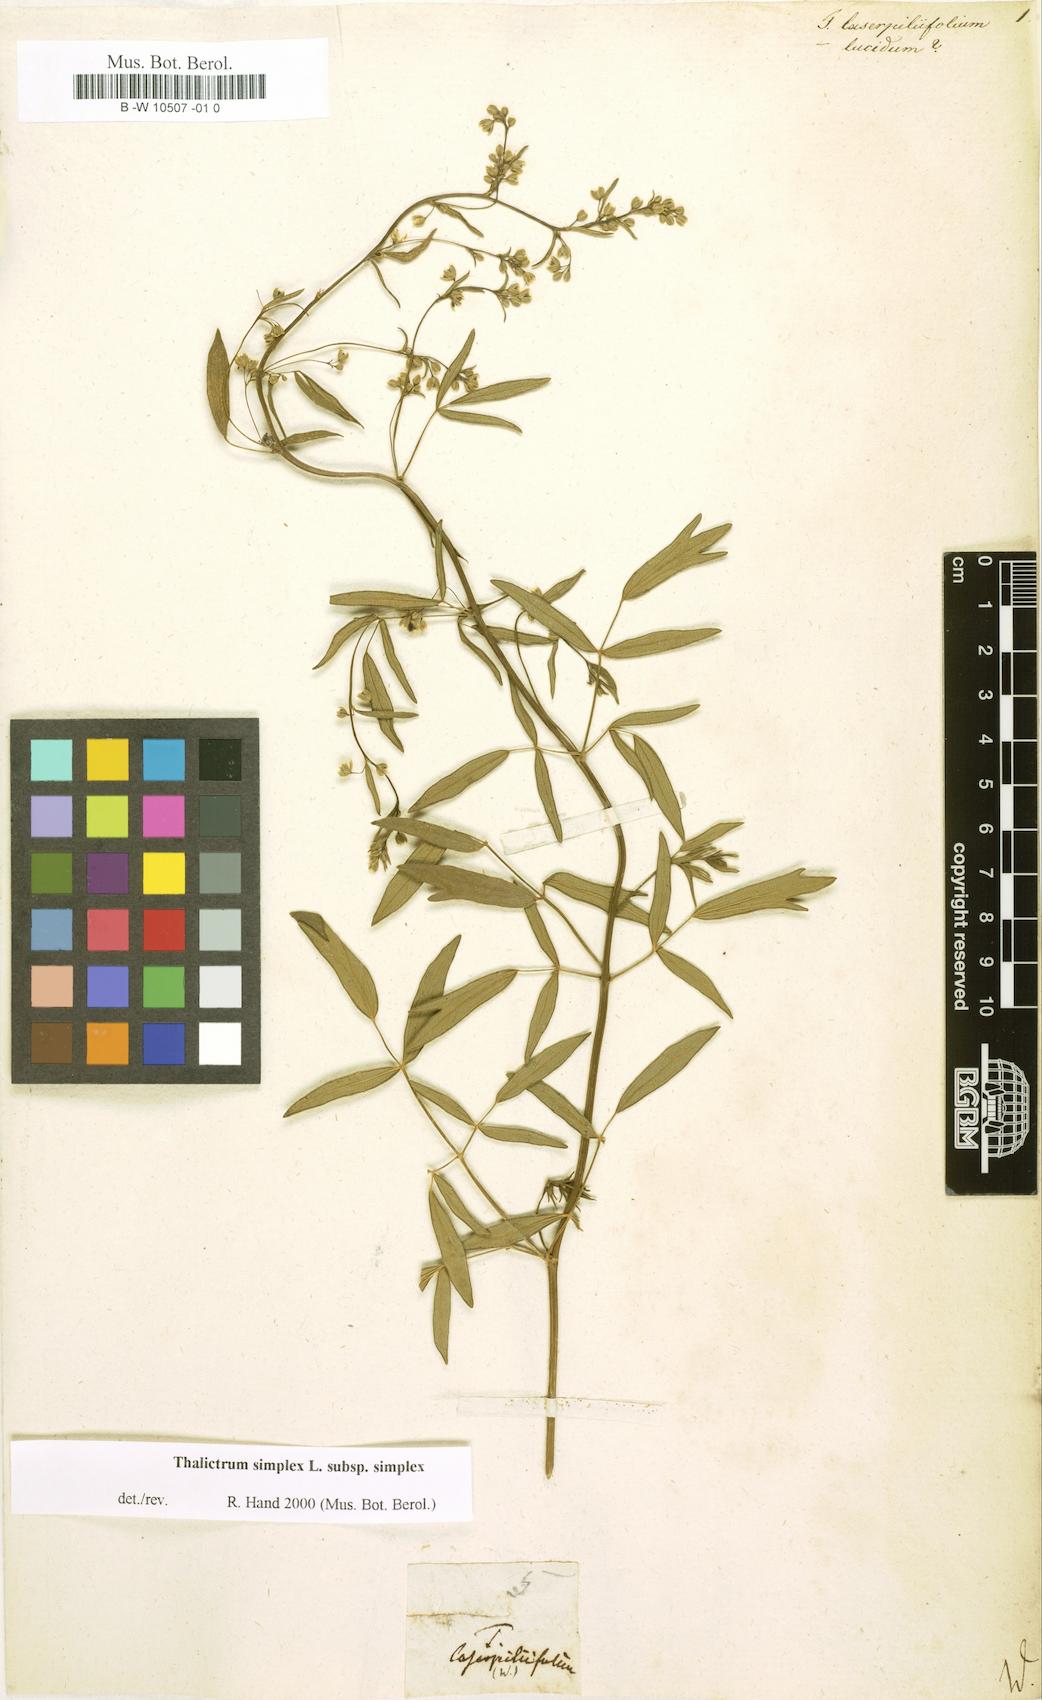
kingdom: Plantae
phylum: Tracheophyta
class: Magnoliopsida
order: Ranunculales
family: Ranunculaceae
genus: Thalictrum
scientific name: Thalictrum simplex
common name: Small meadow-rue
